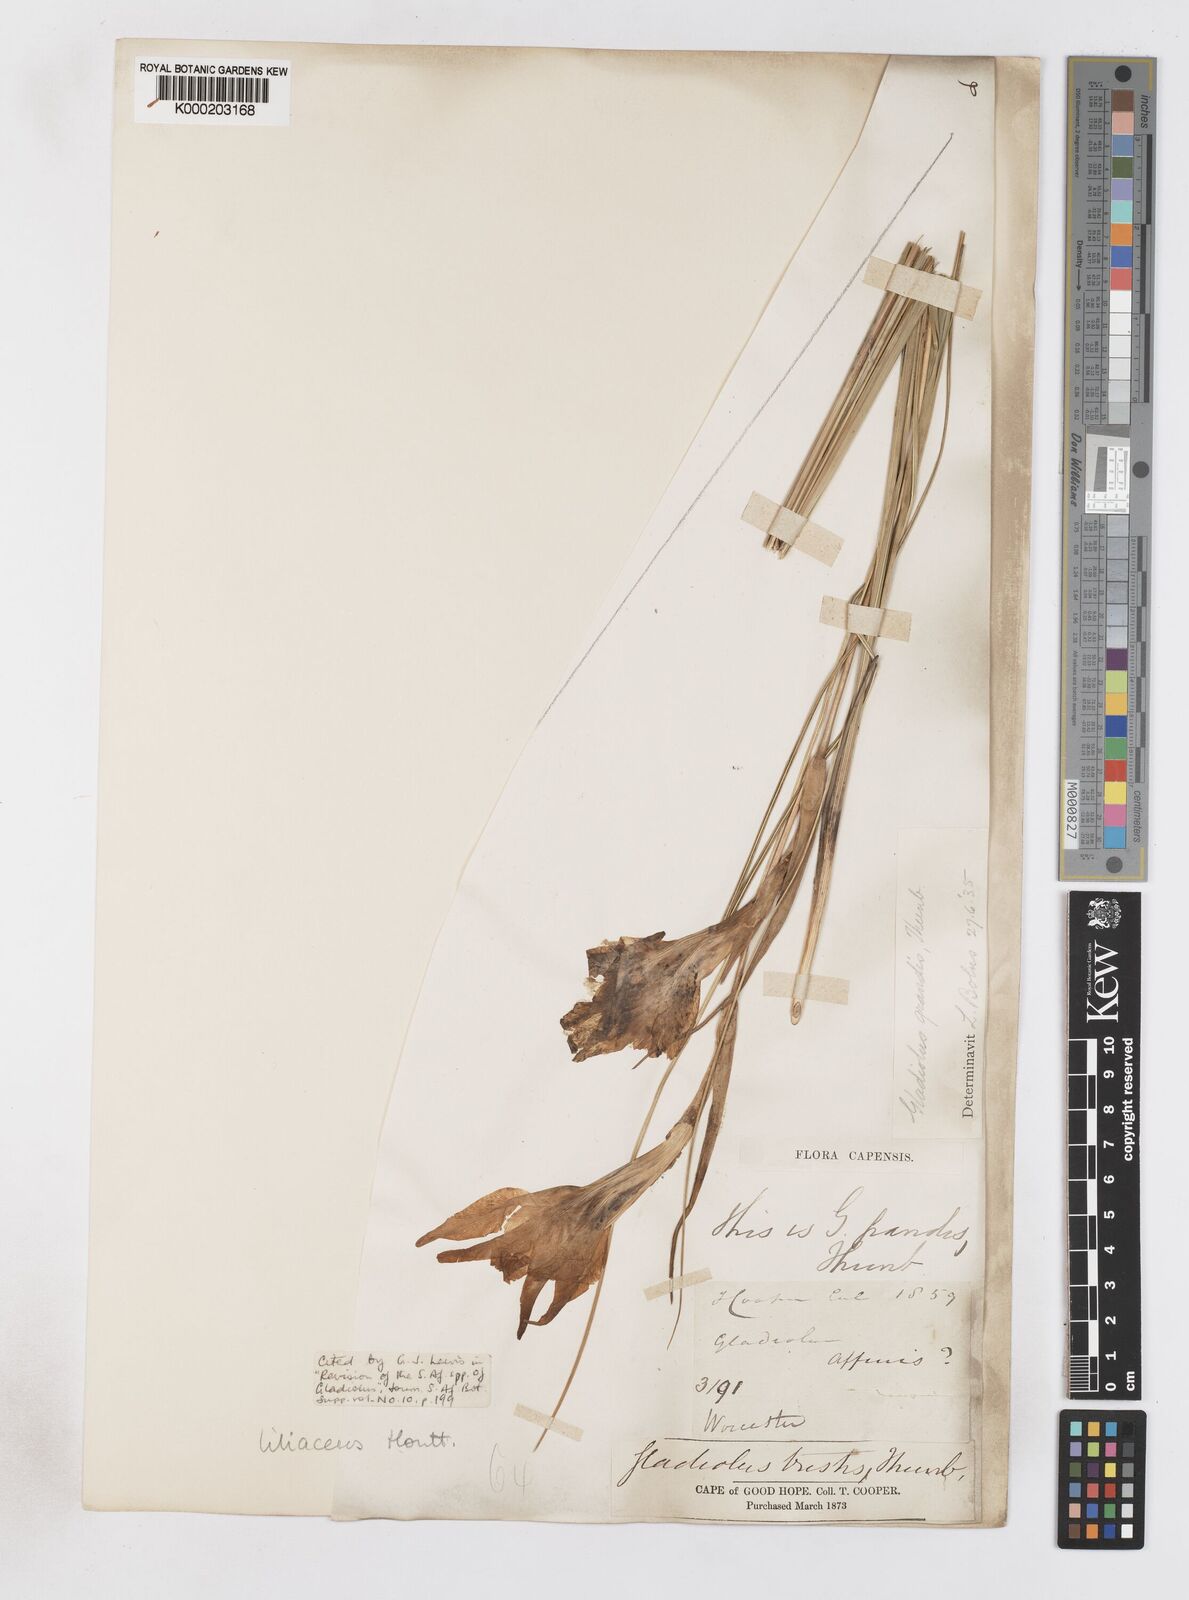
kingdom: Plantae
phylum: Tracheophyta
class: Liliopsida
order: Asparagales
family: Iridaceae
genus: Gladiolus
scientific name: Gladiolus liliaceus
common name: Large brown afrikaner
